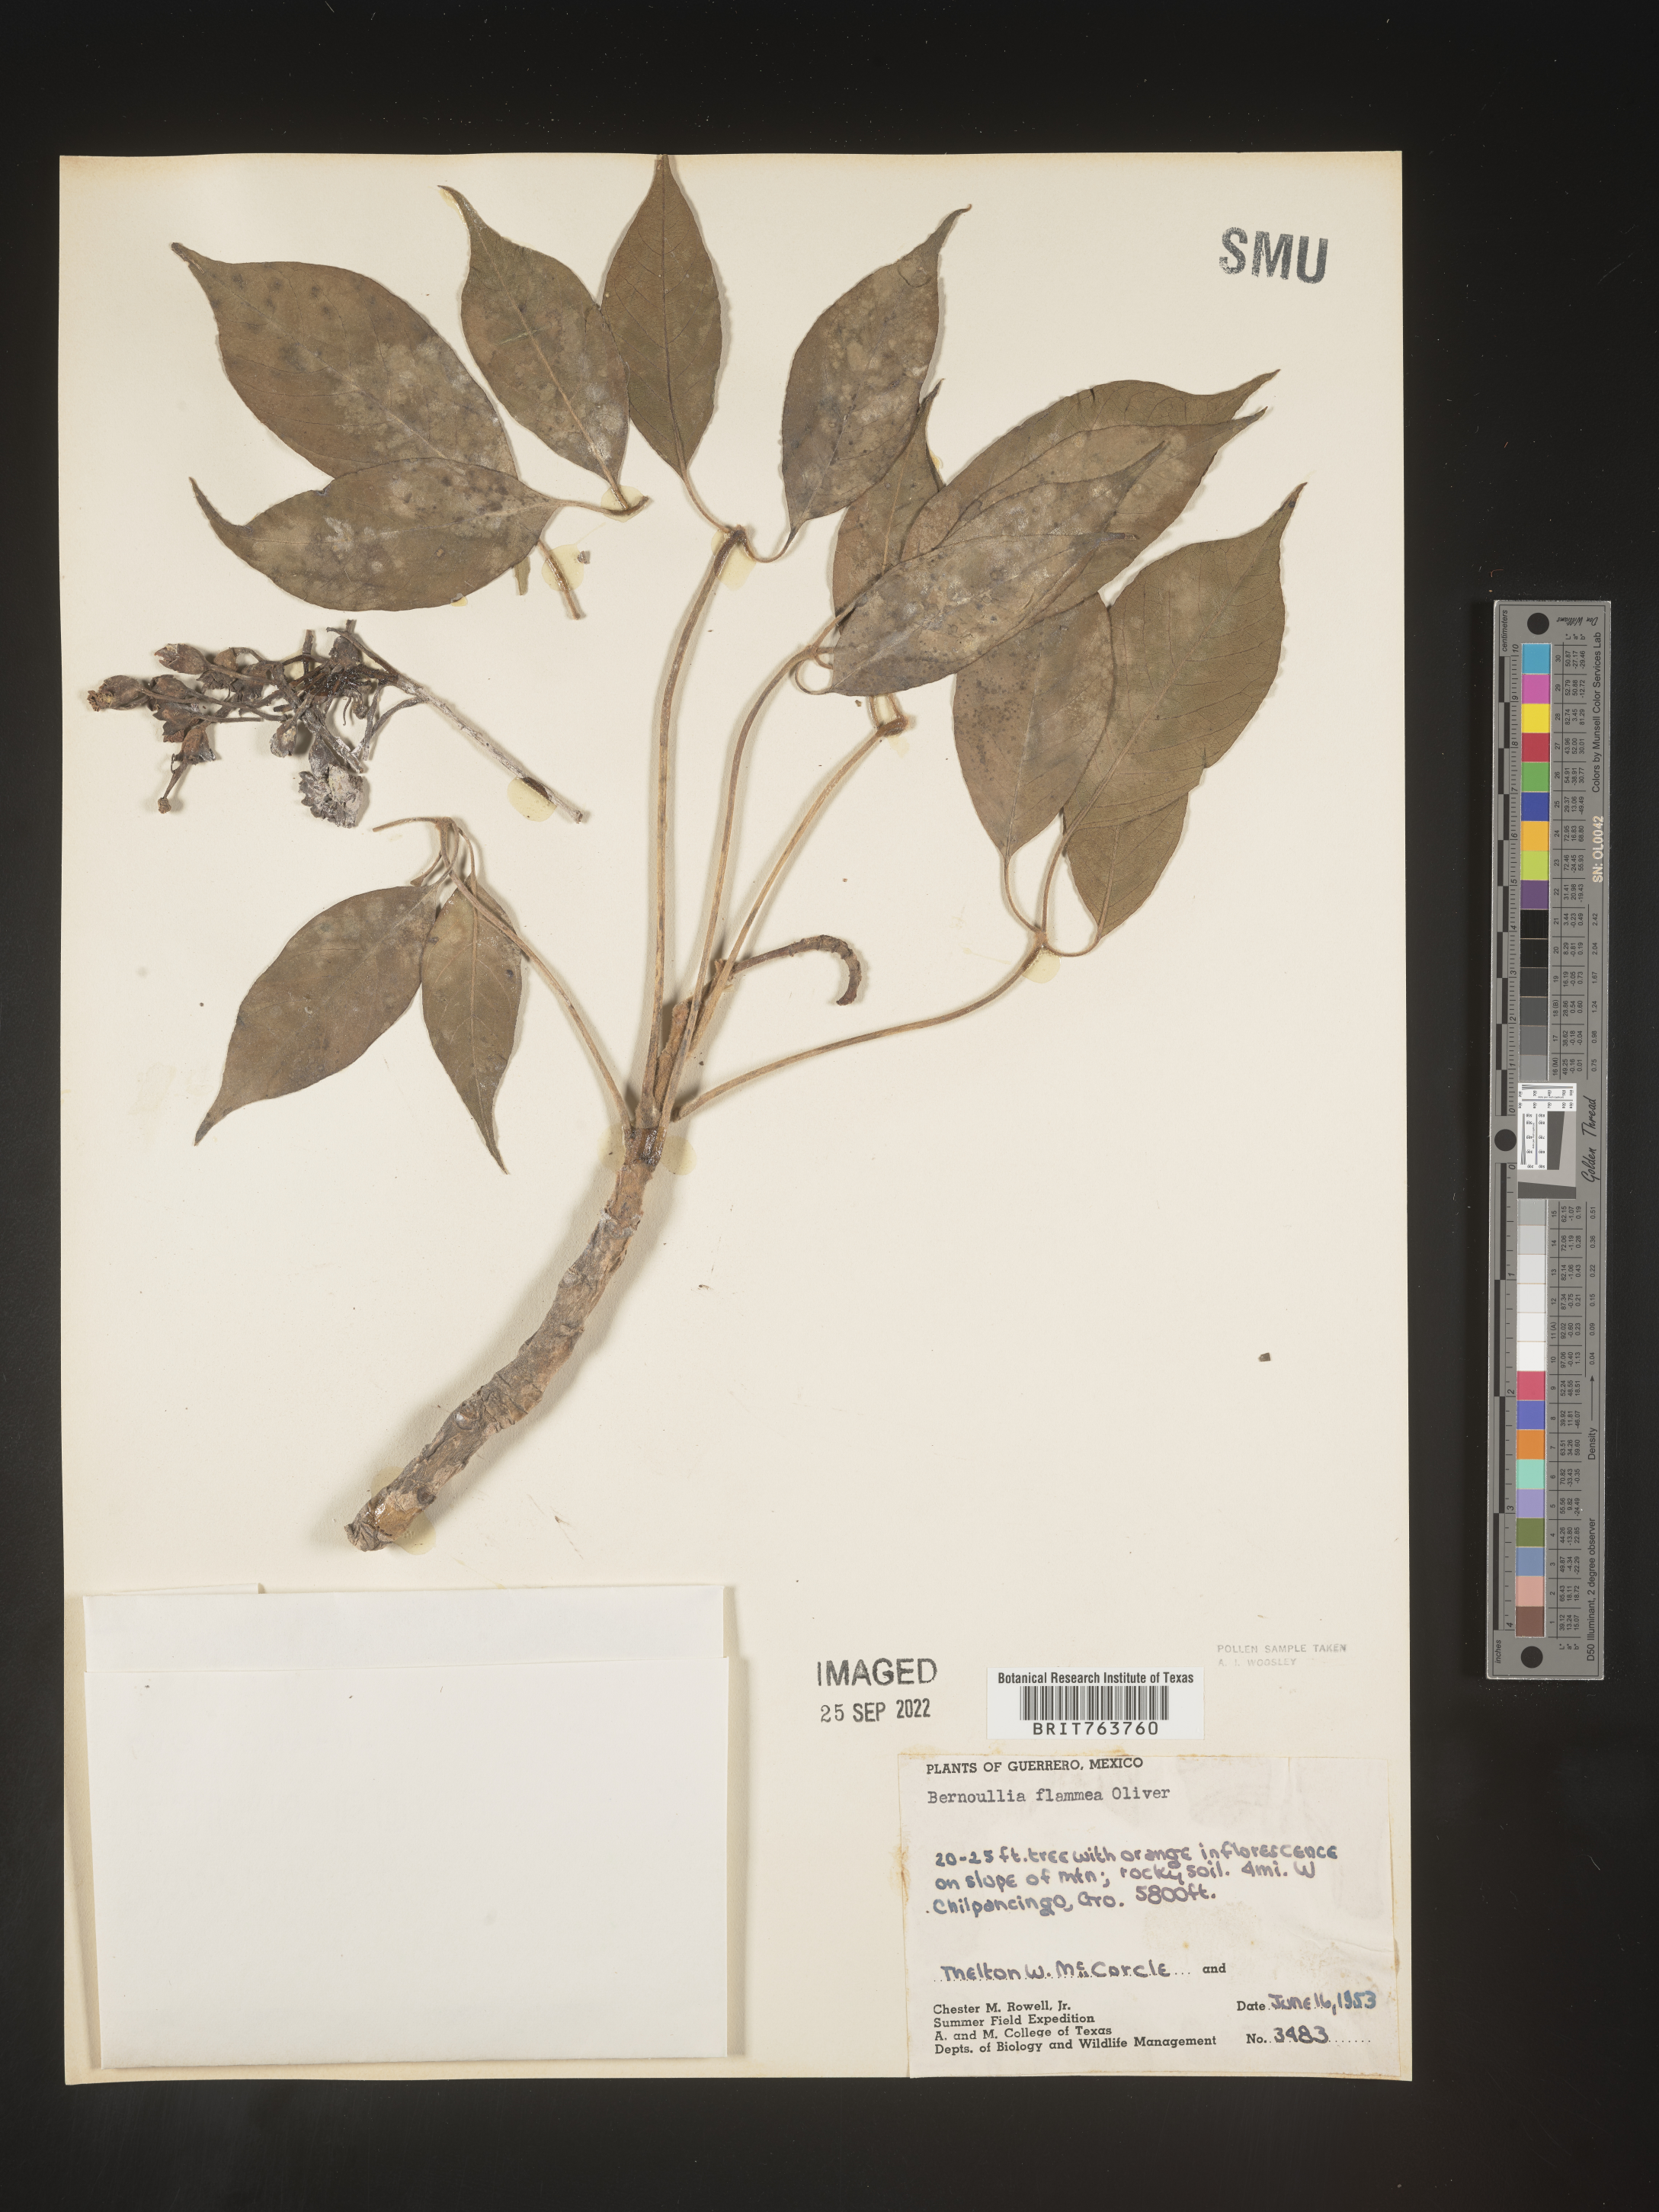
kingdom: Plantae
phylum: Tracheophyta
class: Magnoliopsida
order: Malvales
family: Malvaceae
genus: Bernoullia
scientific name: Bernoullia flammea
